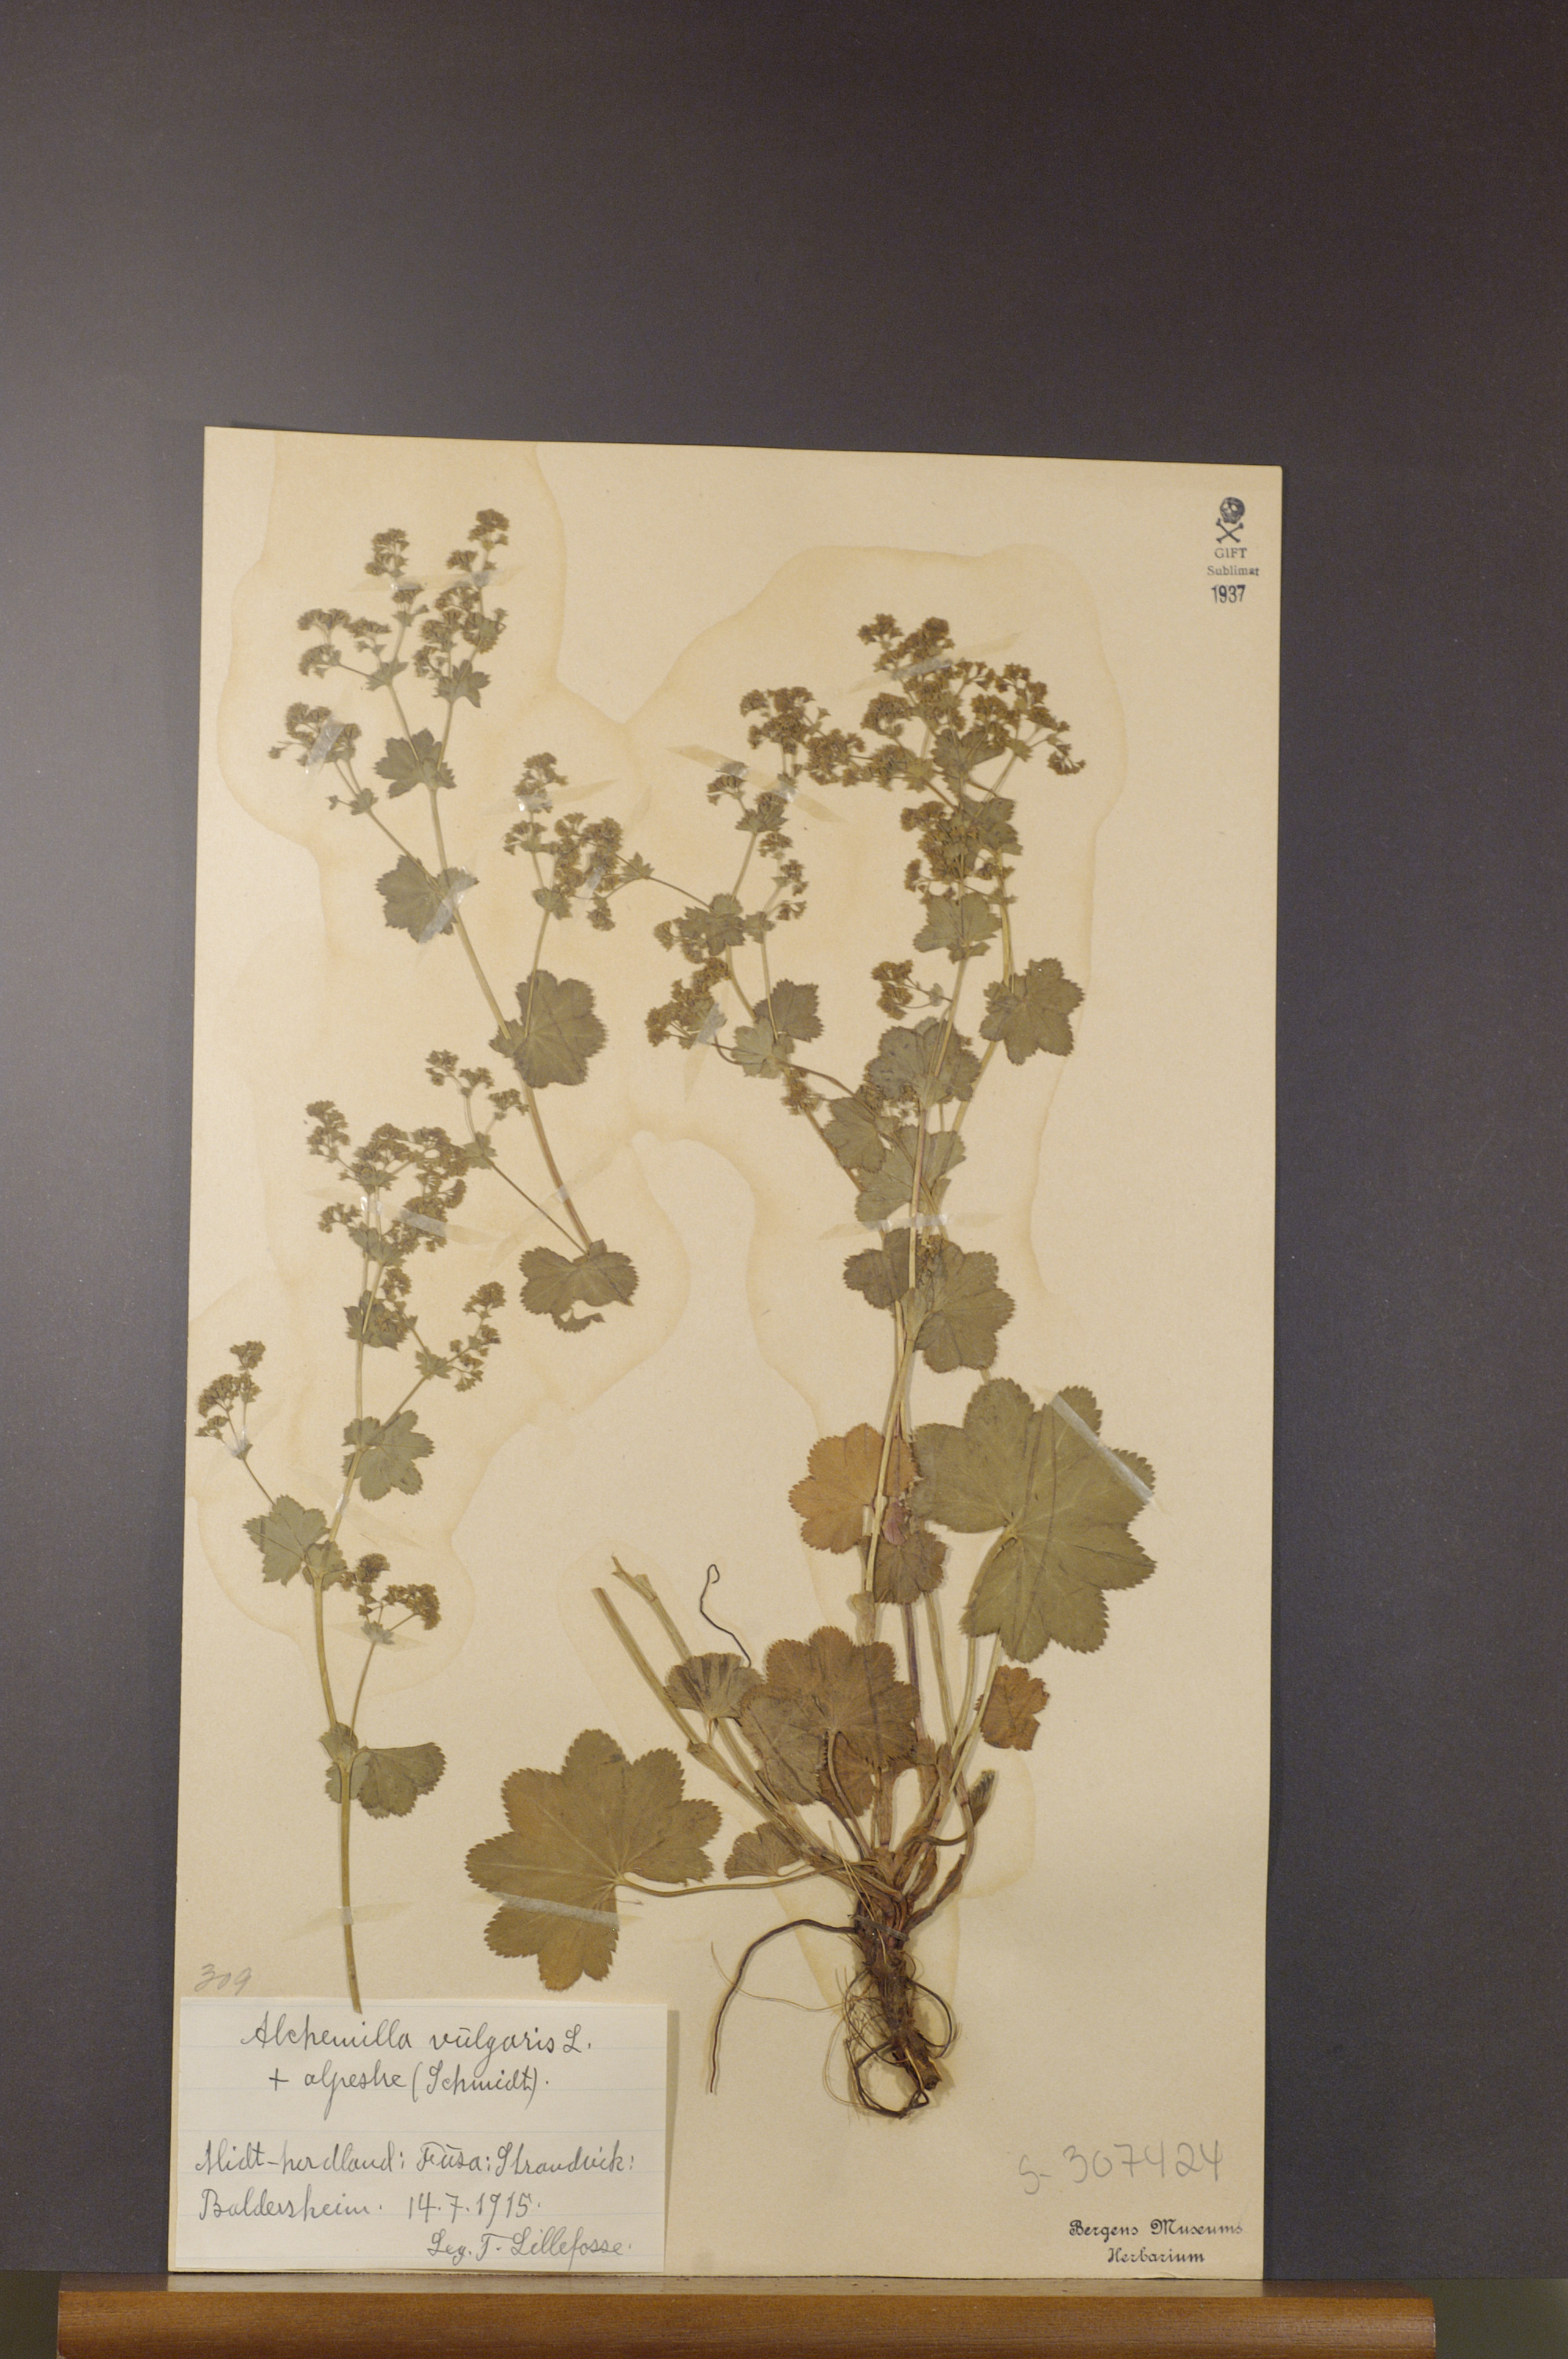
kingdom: Plantae
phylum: Tracheophyta
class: Magnoliopsida
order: Rosales
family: Rosaceae
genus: Alchemilla
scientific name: Alchemilla glabra
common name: Smooth lady's-mantle
